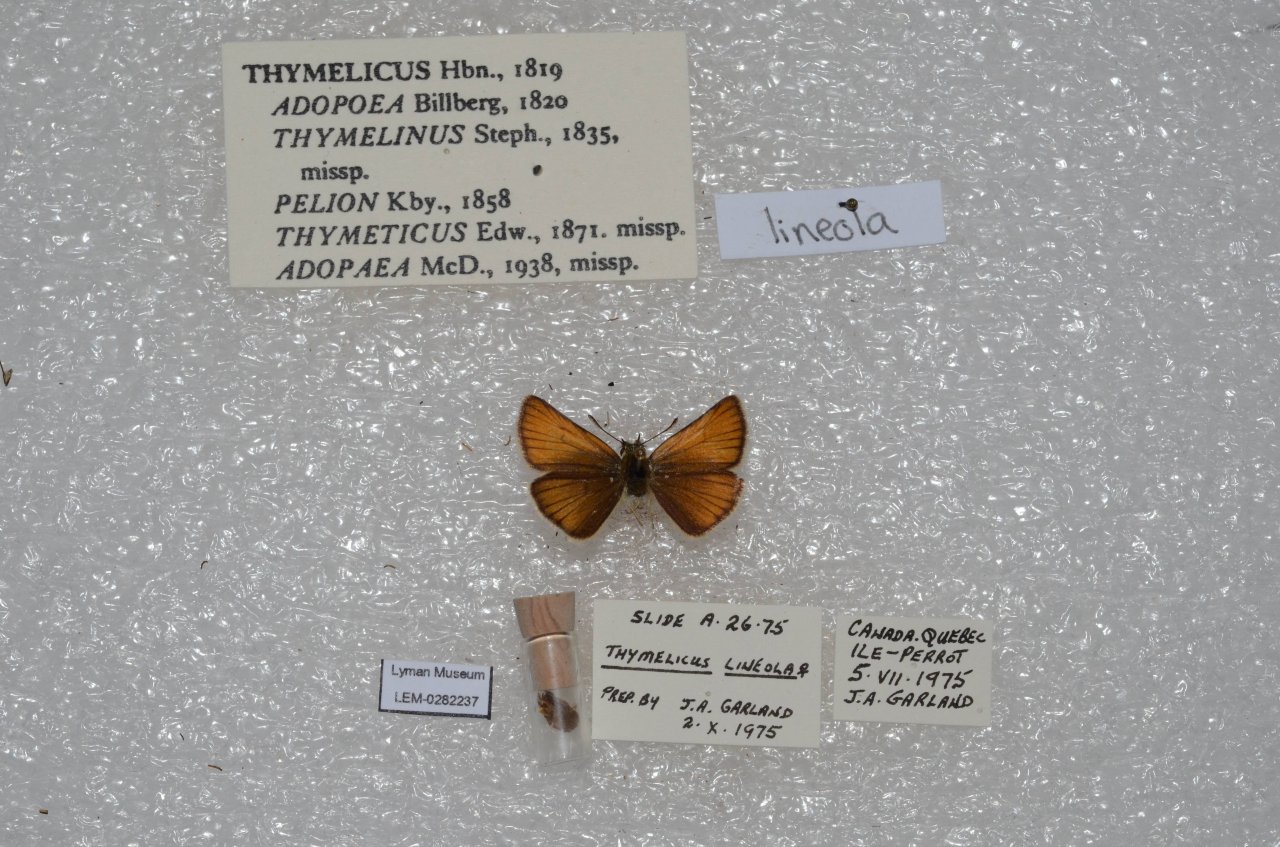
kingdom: Animalia
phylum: Arthropoda
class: Insecta
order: Lepidoptera
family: Hesperiidae
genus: Thymelicus
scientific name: Thymelicus lineola
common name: European Skipper
